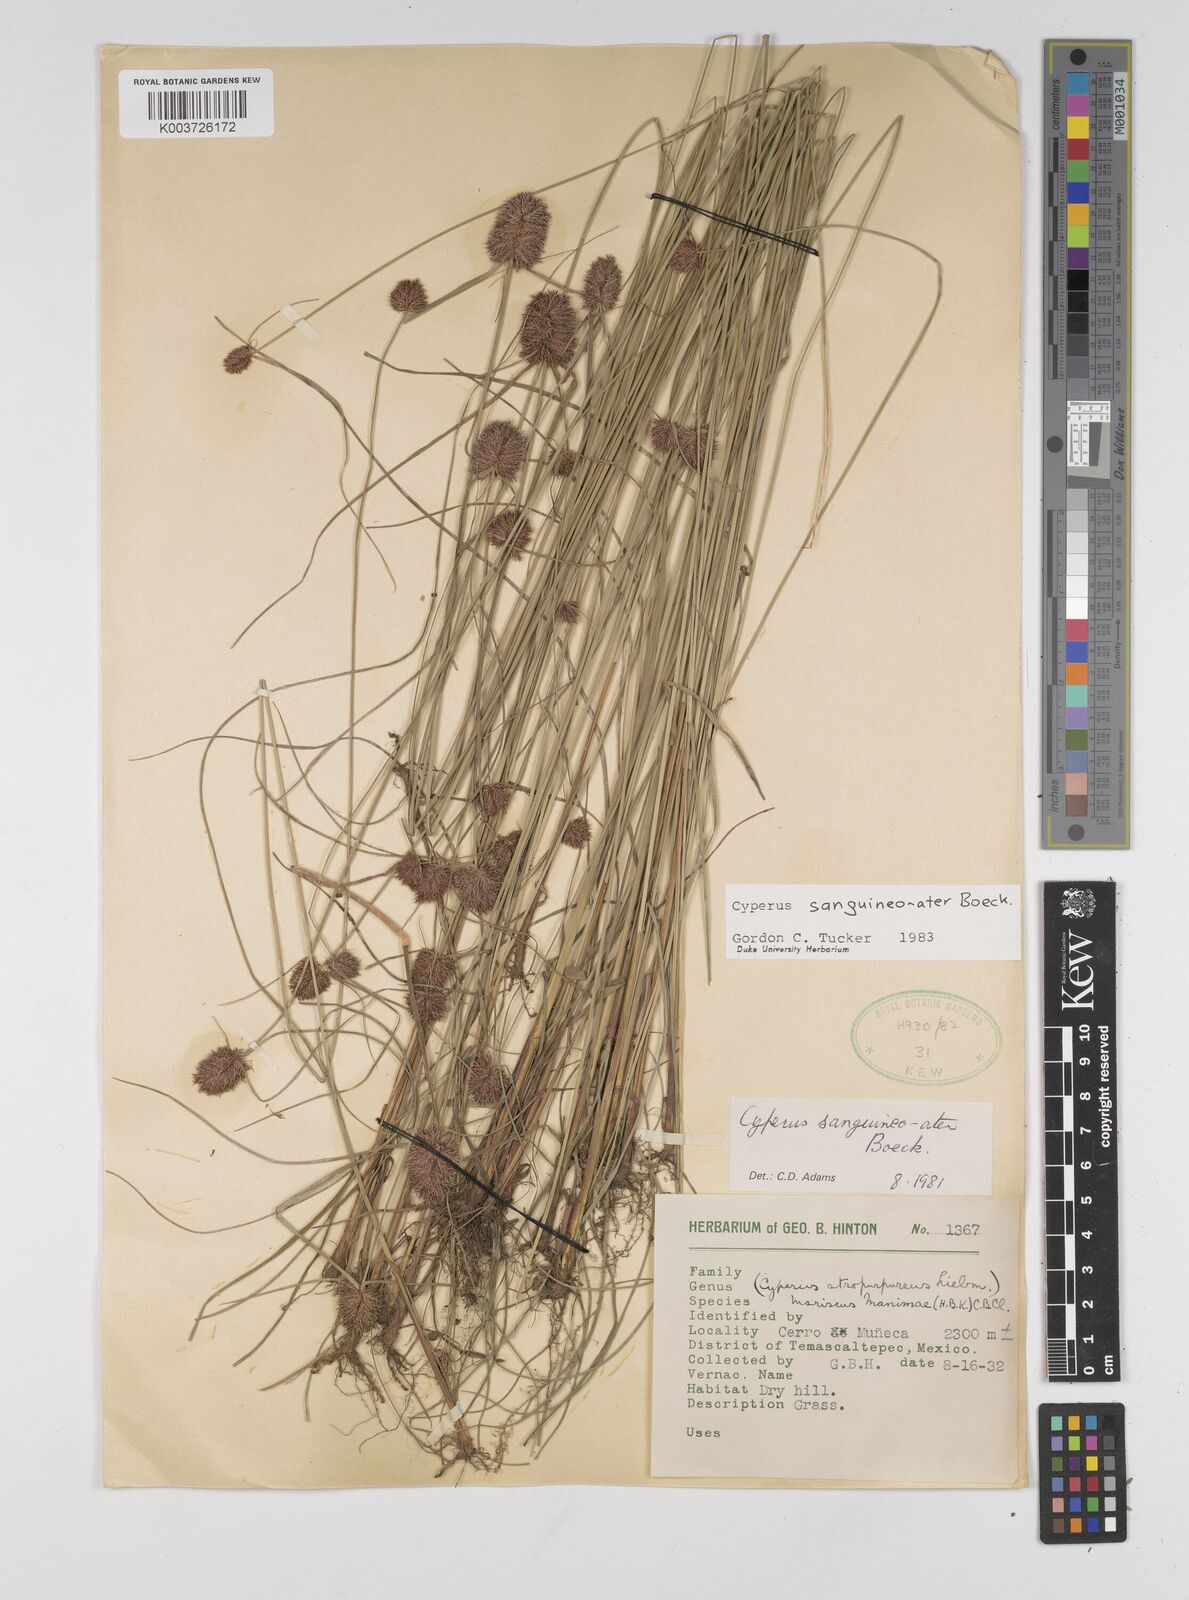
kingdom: Plantae
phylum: Tracheophyta
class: Liliopsida
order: Poales
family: Cyperaceae
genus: Cyperus
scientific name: Cyperus sanguineoater
